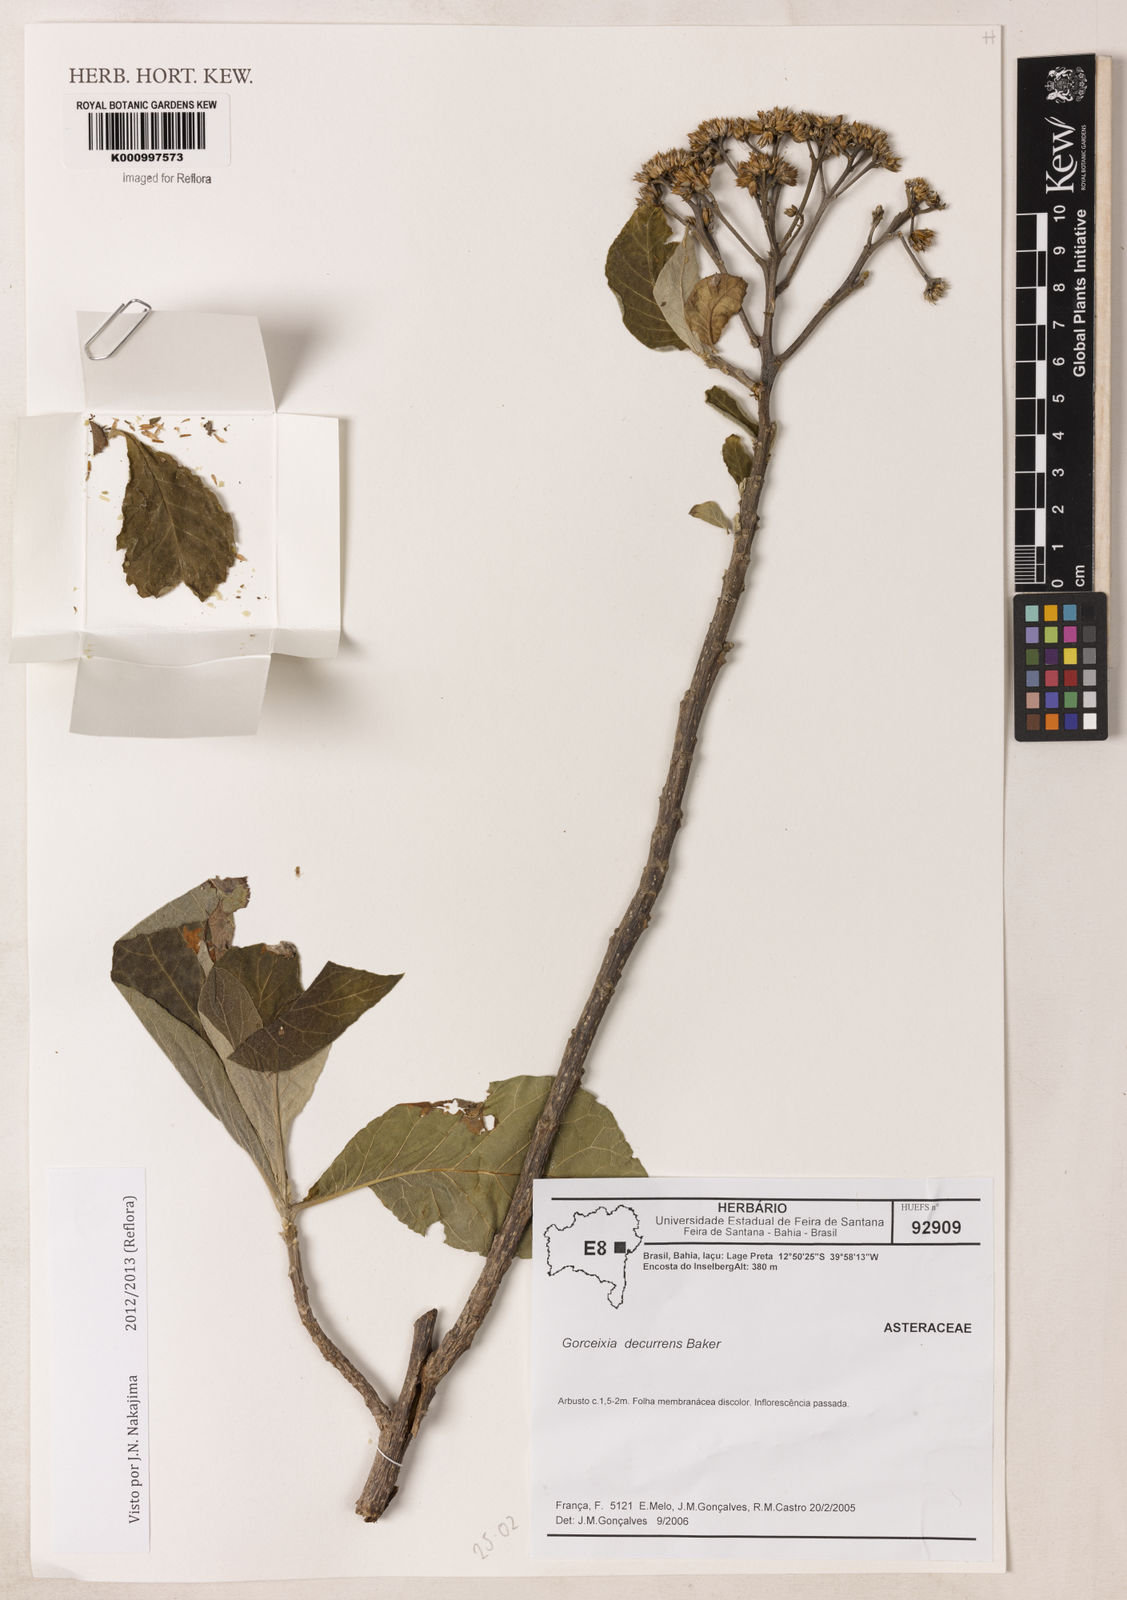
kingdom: Plantae
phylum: Tracheophyta
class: Magnoliopsida
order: Asterales
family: Asteraceae
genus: Gorceixia
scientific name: Gorceixia decurrens
